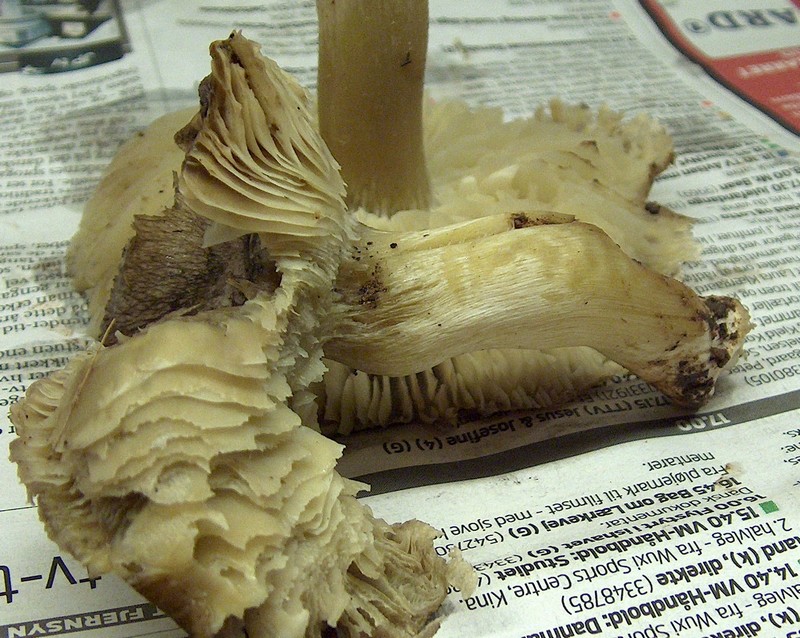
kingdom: Fungi
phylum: Basidiomycota
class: Agaricomycetes
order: Agaricales
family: Tricholomataceae
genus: Tricholoma
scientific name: Tricholoma portentosum
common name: grå ridderhat
